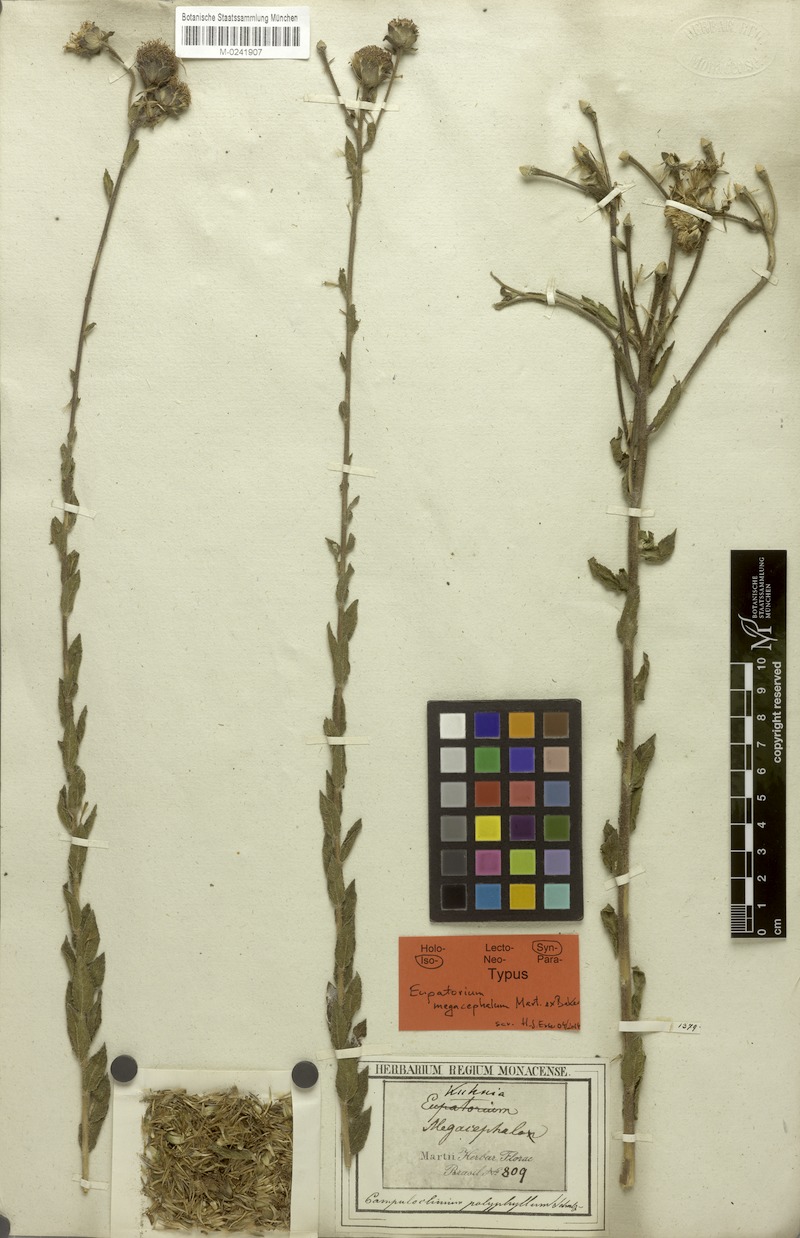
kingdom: Plantae
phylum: Tracheophyta
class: Magnoliopsida
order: Asterales
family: Asteraceae
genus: Campuloclinium
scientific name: Campuloclinium megacephalum
